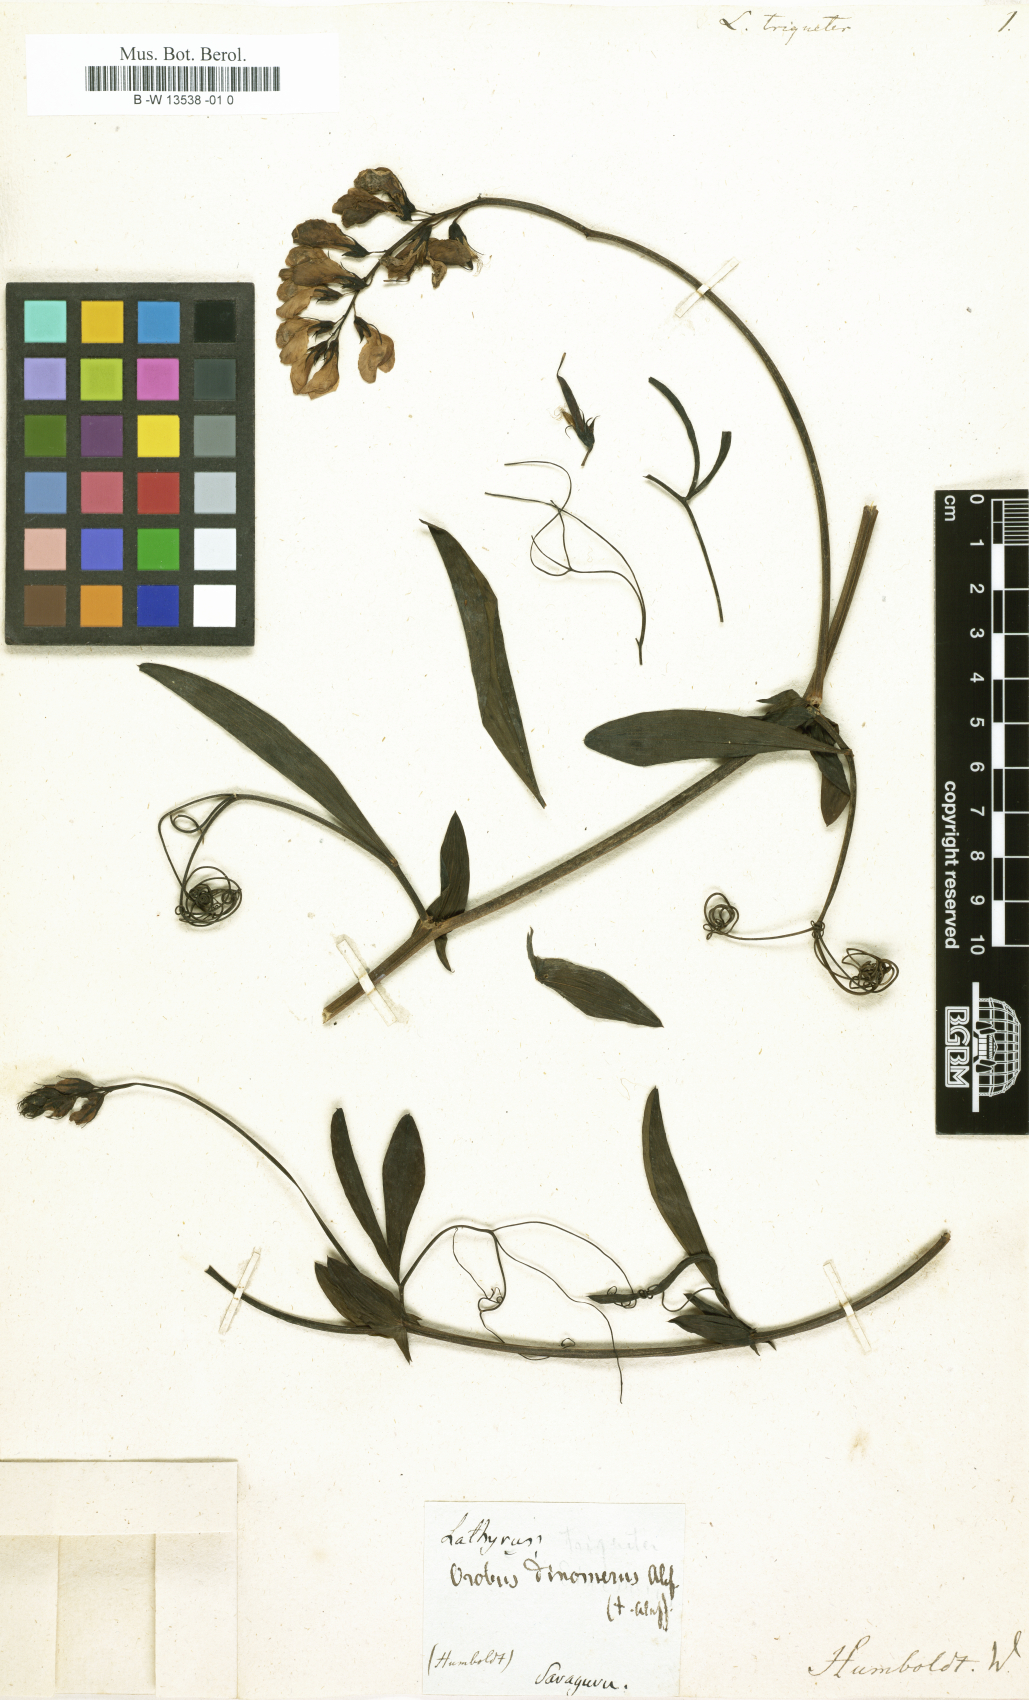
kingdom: Plantae
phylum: Tracheophyta
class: Magnoliopsida
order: Fabales
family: Fabaceae
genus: Lathyrus
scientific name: Lathyrus
